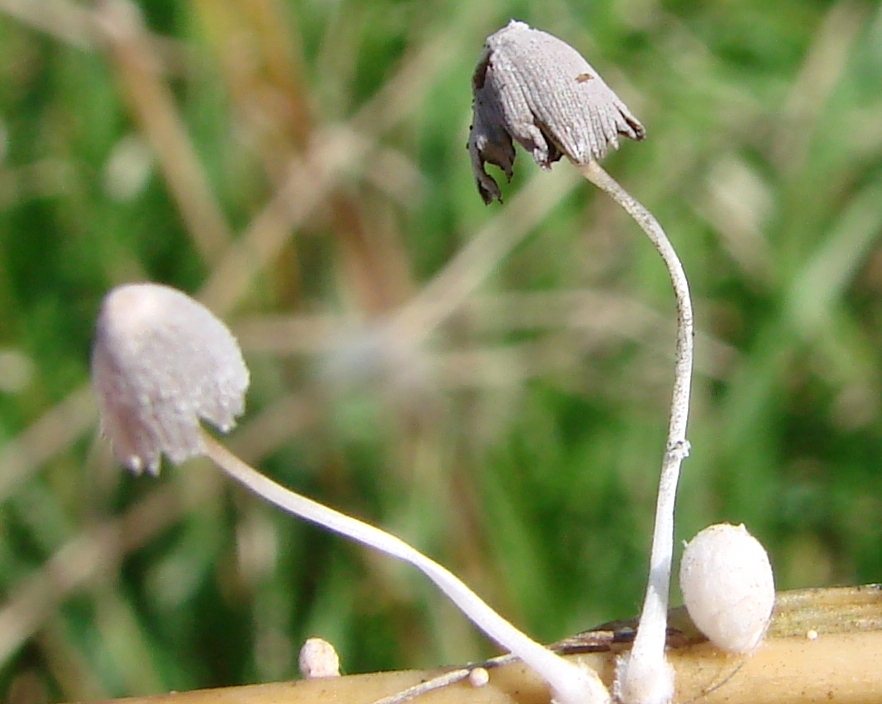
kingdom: Fungi
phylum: Basidiomycota
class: Agaricomycetes
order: Agaricales
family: Psathyrellaceae
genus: Coprinopsis
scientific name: Coprinopsis urticicola
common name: urte-blækhat
